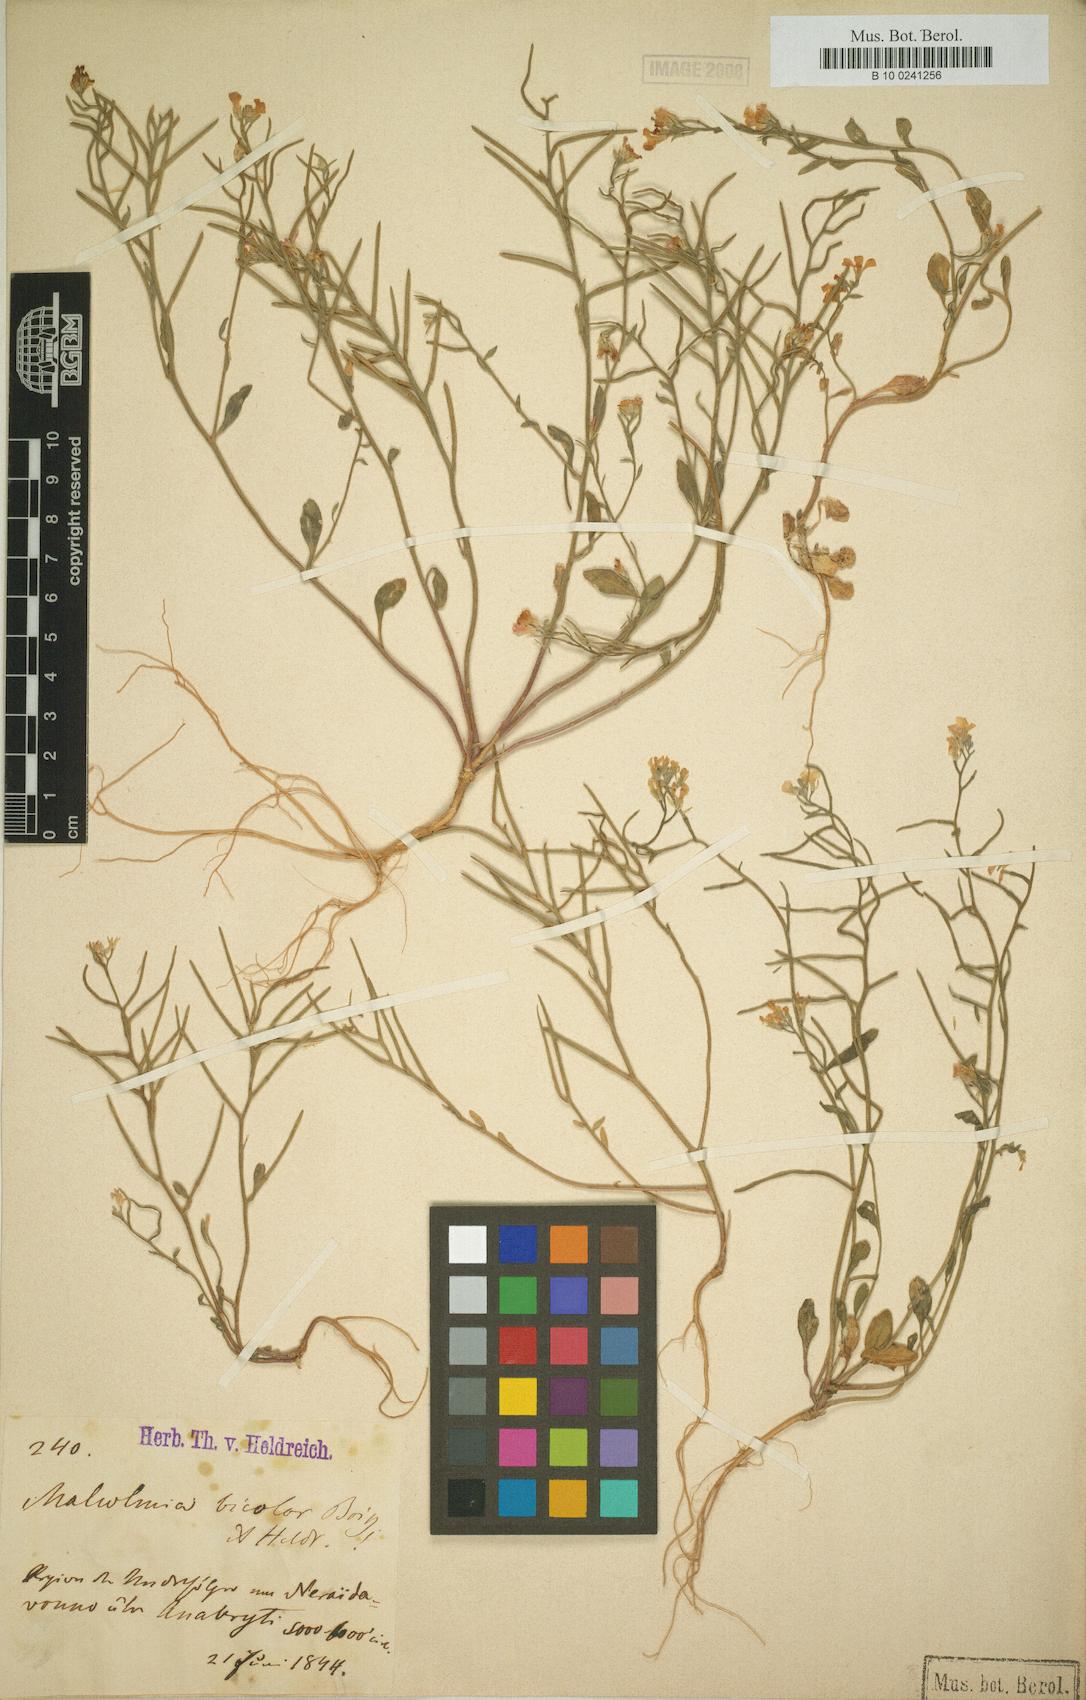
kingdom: Plantae
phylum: Tracheophyta
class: Magnoliopsida
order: Brassicales
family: Brassicaceae
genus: Malcolmia
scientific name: Malcolmia graeca
